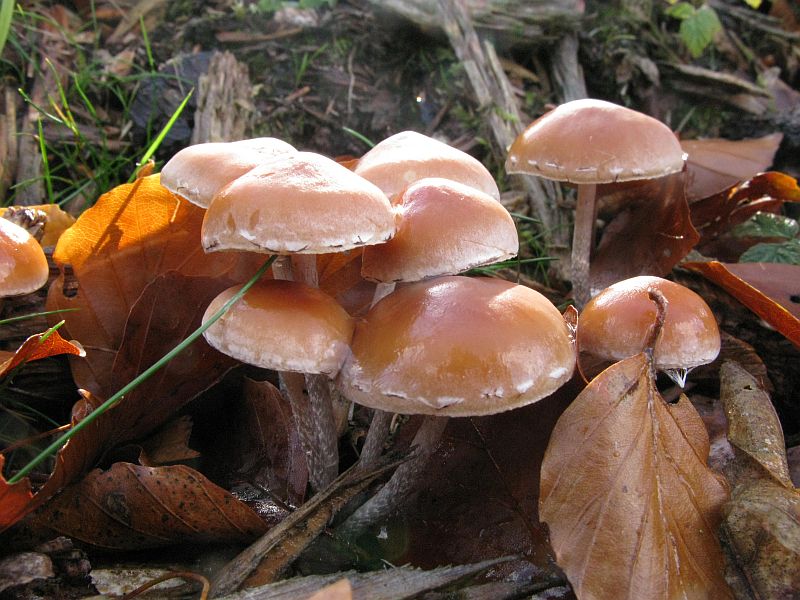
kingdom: Fungi
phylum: Basidiomycota
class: Agaricomycetes
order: Agaricales
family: Strophariaceae
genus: Hypholoma
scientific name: Hypholoma marginatum
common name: enlig svovlhat
